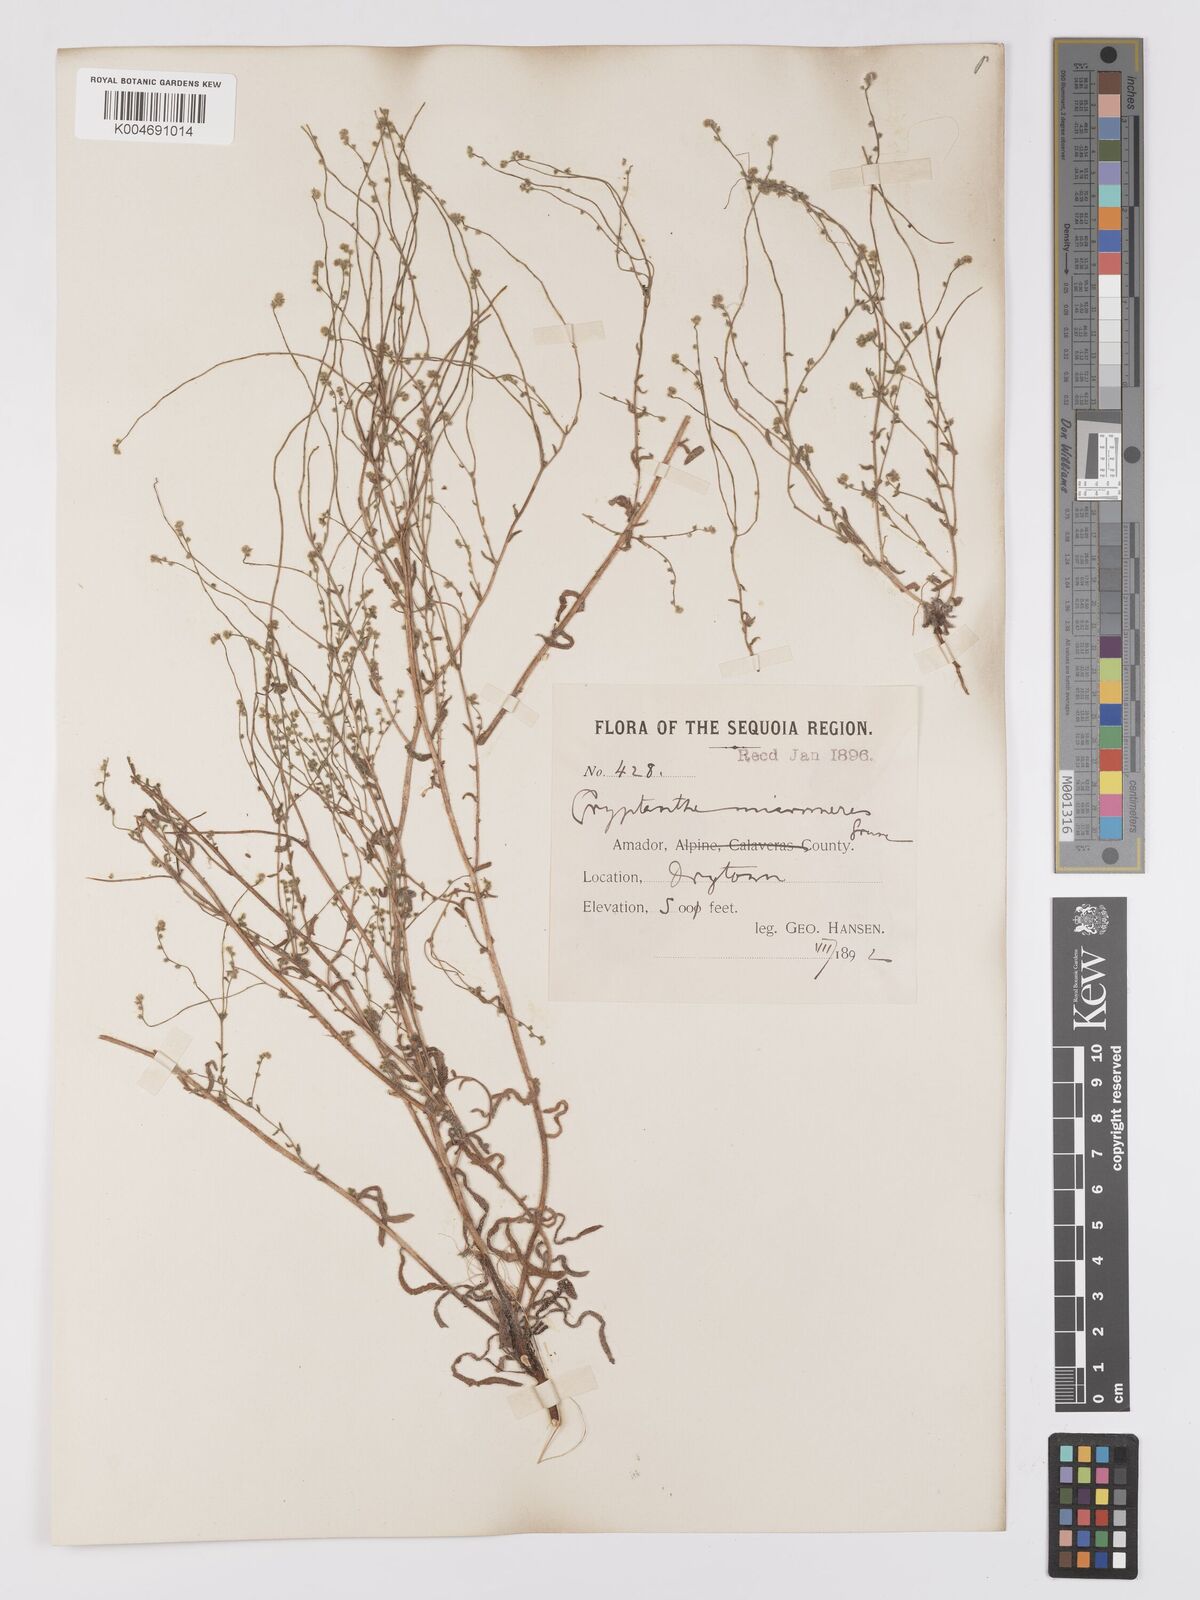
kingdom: Plantae
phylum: Tracheophyta
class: Magnoliopsida
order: Boraginales
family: Boraginaceae
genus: Johnstonella
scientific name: Johnstonella micromeres
